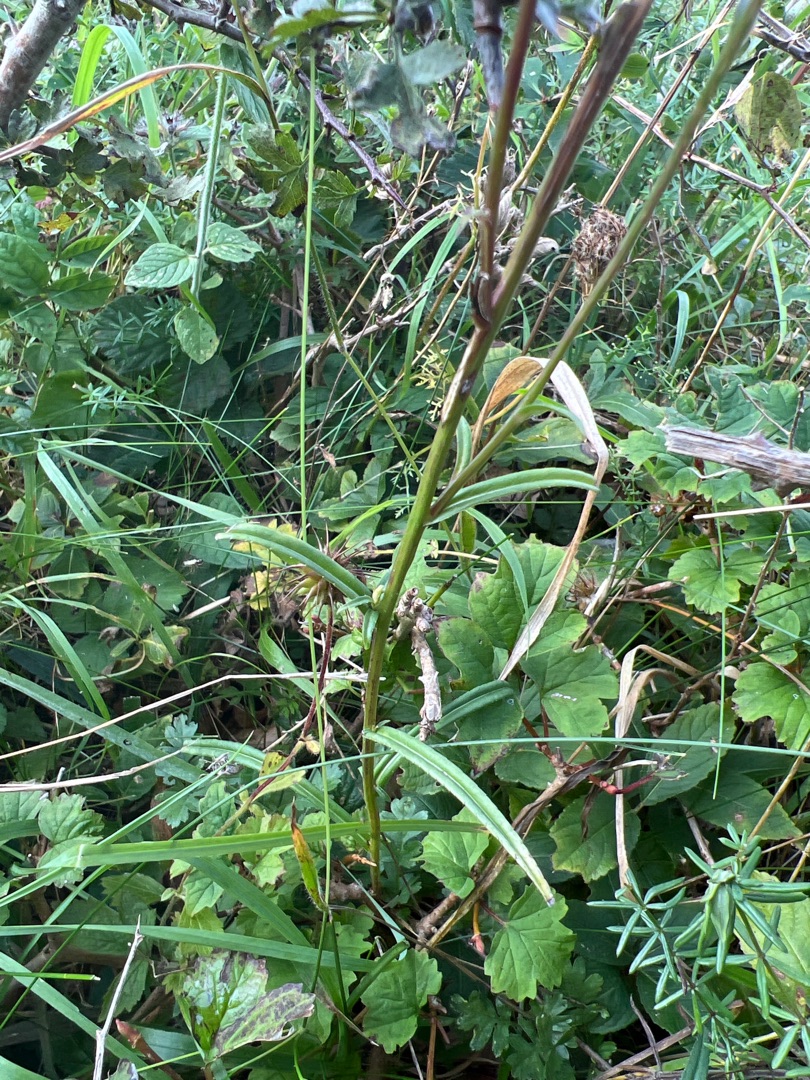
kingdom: Plantae
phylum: Tracheophyta
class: Magnoliopsida
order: Asterales
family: Campanulaceae
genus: Campanula
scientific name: Campanula persicifolia
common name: Smalbladet klokke
